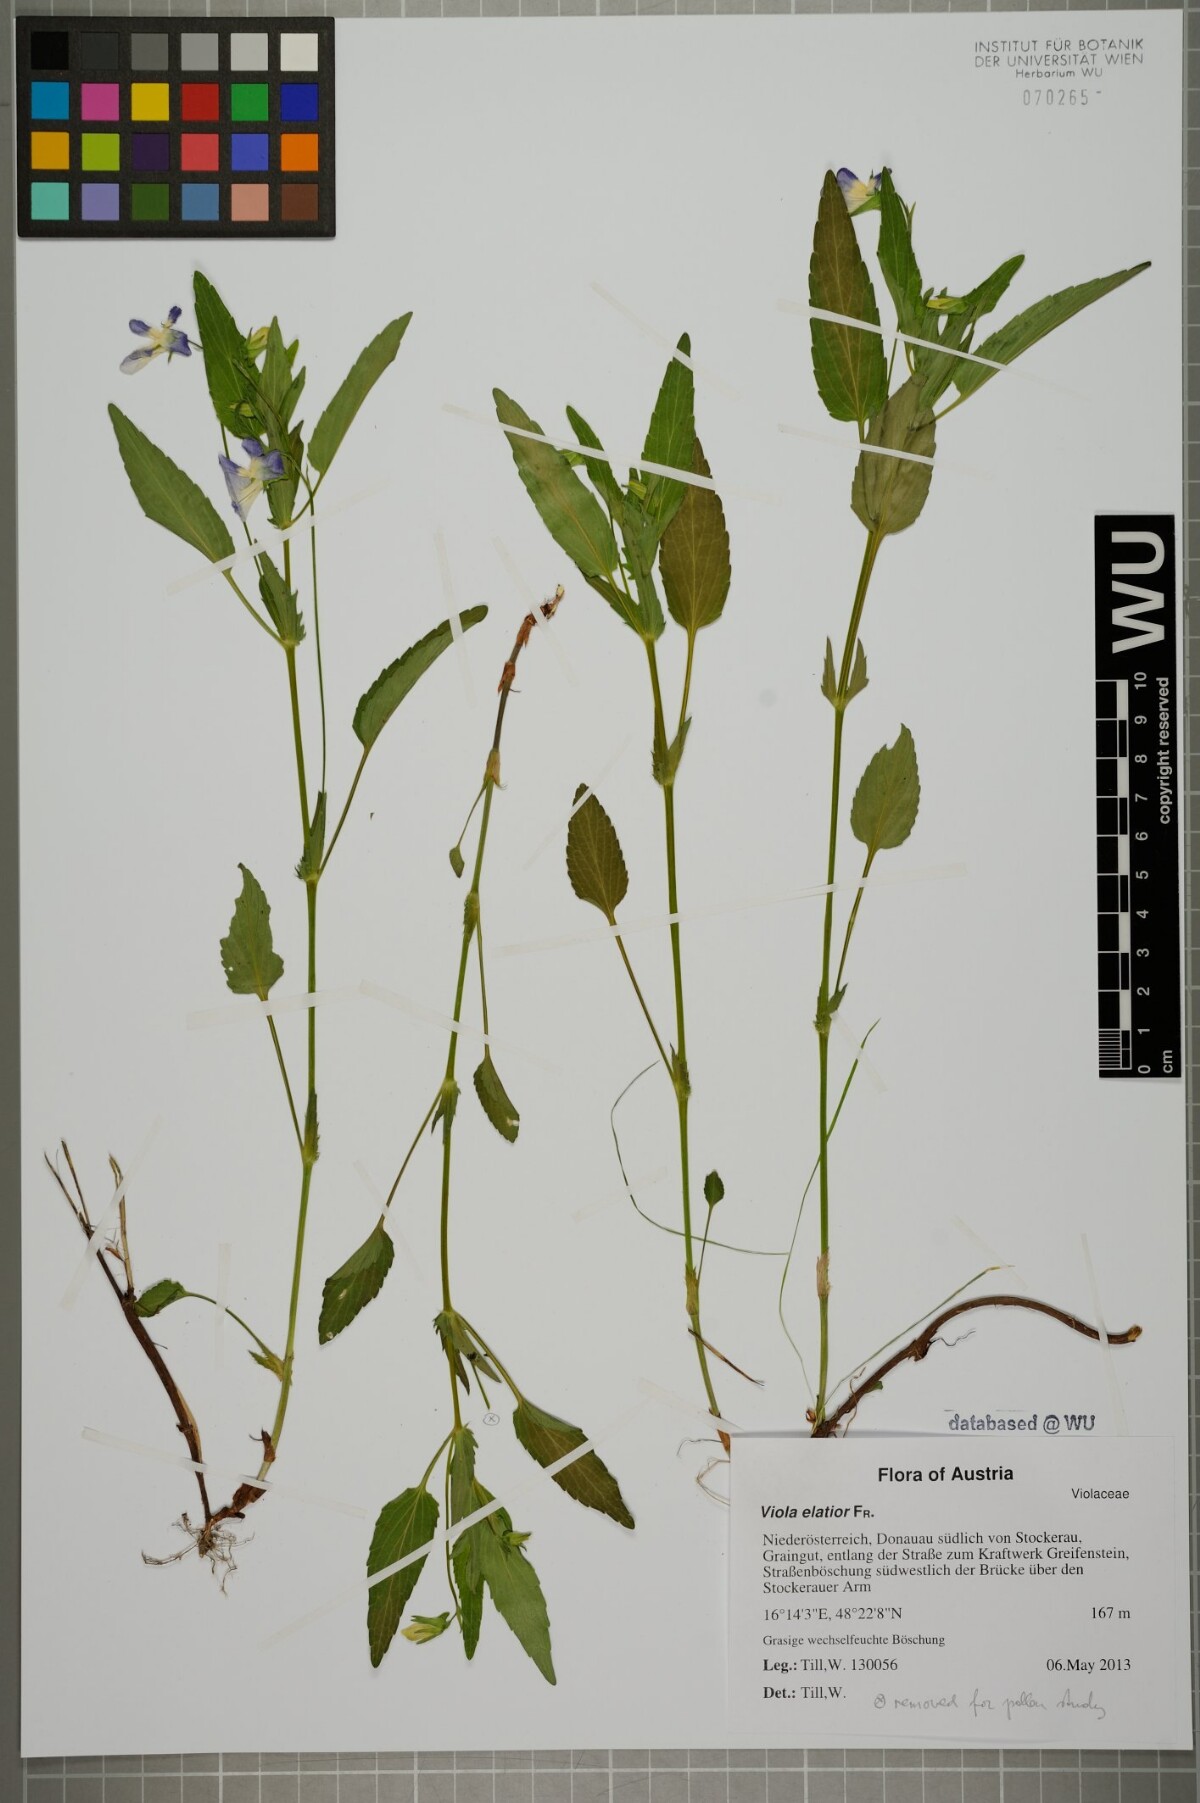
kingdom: Plantae
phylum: Tracheophyta
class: Magnoliopsida
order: Malpighiales
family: Violaceae
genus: Viola
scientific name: Viola elatior
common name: Tall violet
